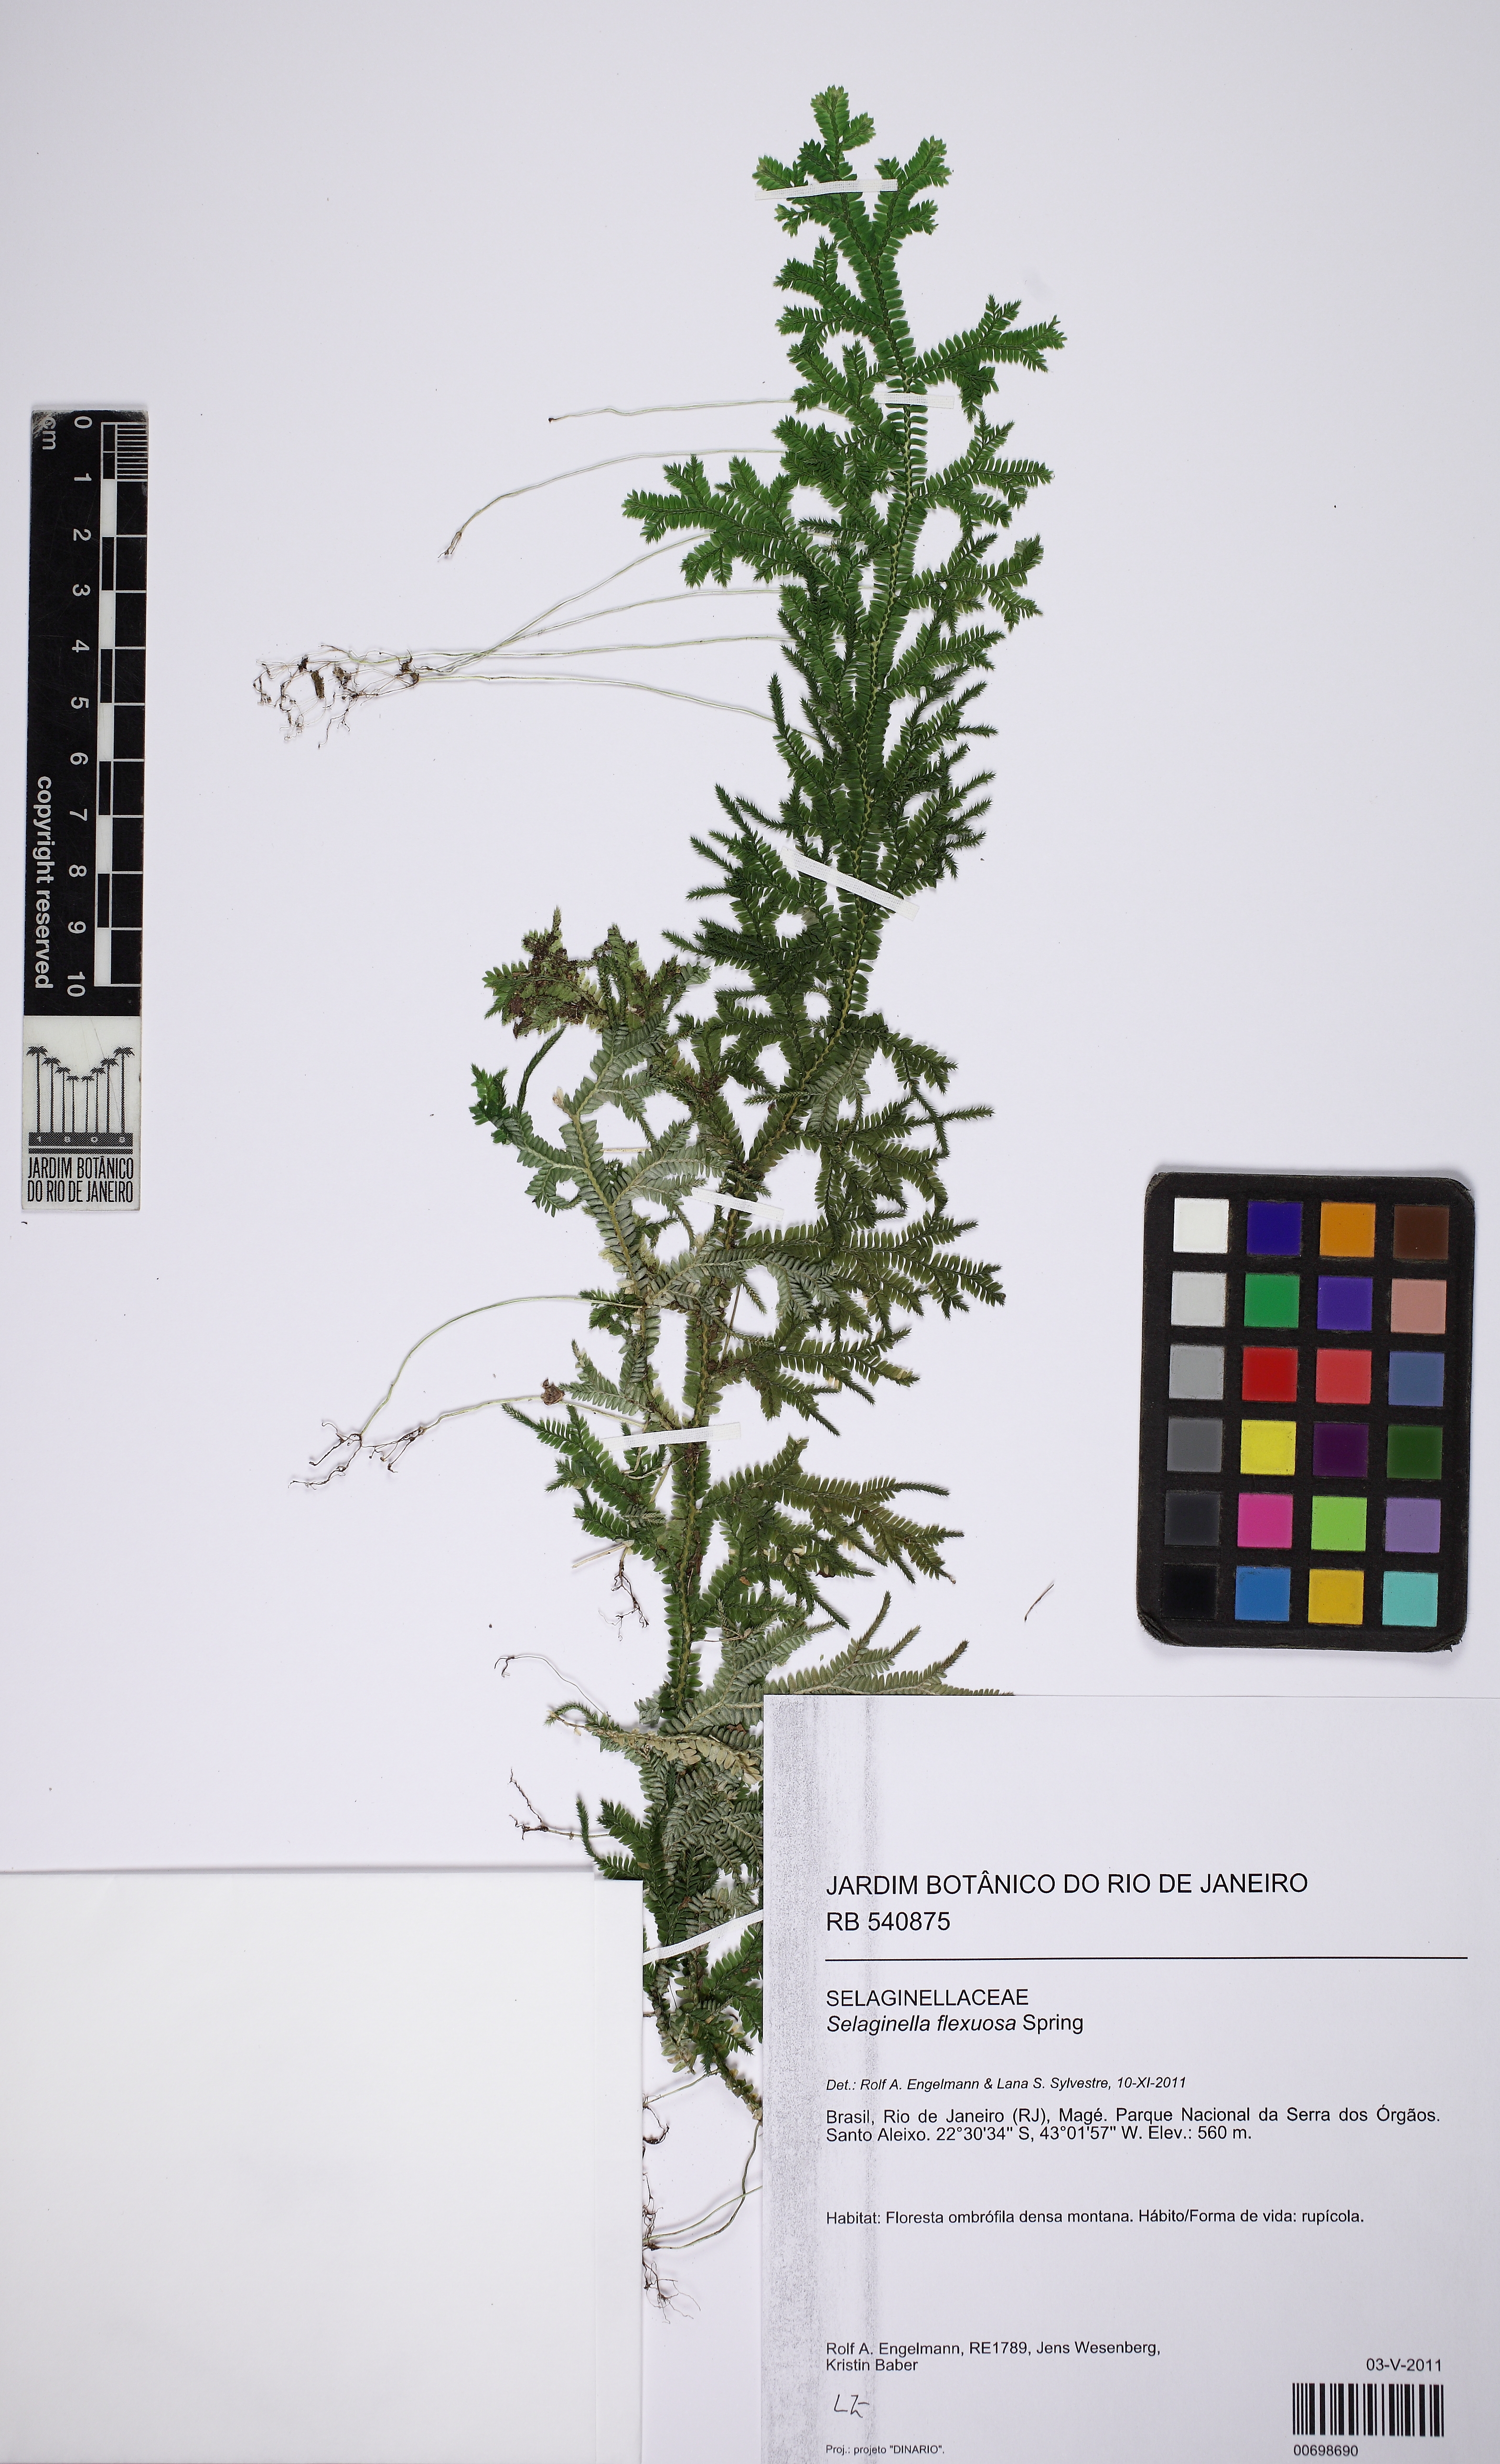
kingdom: Plantae
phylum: Tracheophyta
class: Lycopodiopsida
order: Selaginellales
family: Selaginellaceae
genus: Selaginella
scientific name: Selaginella flexuosa
